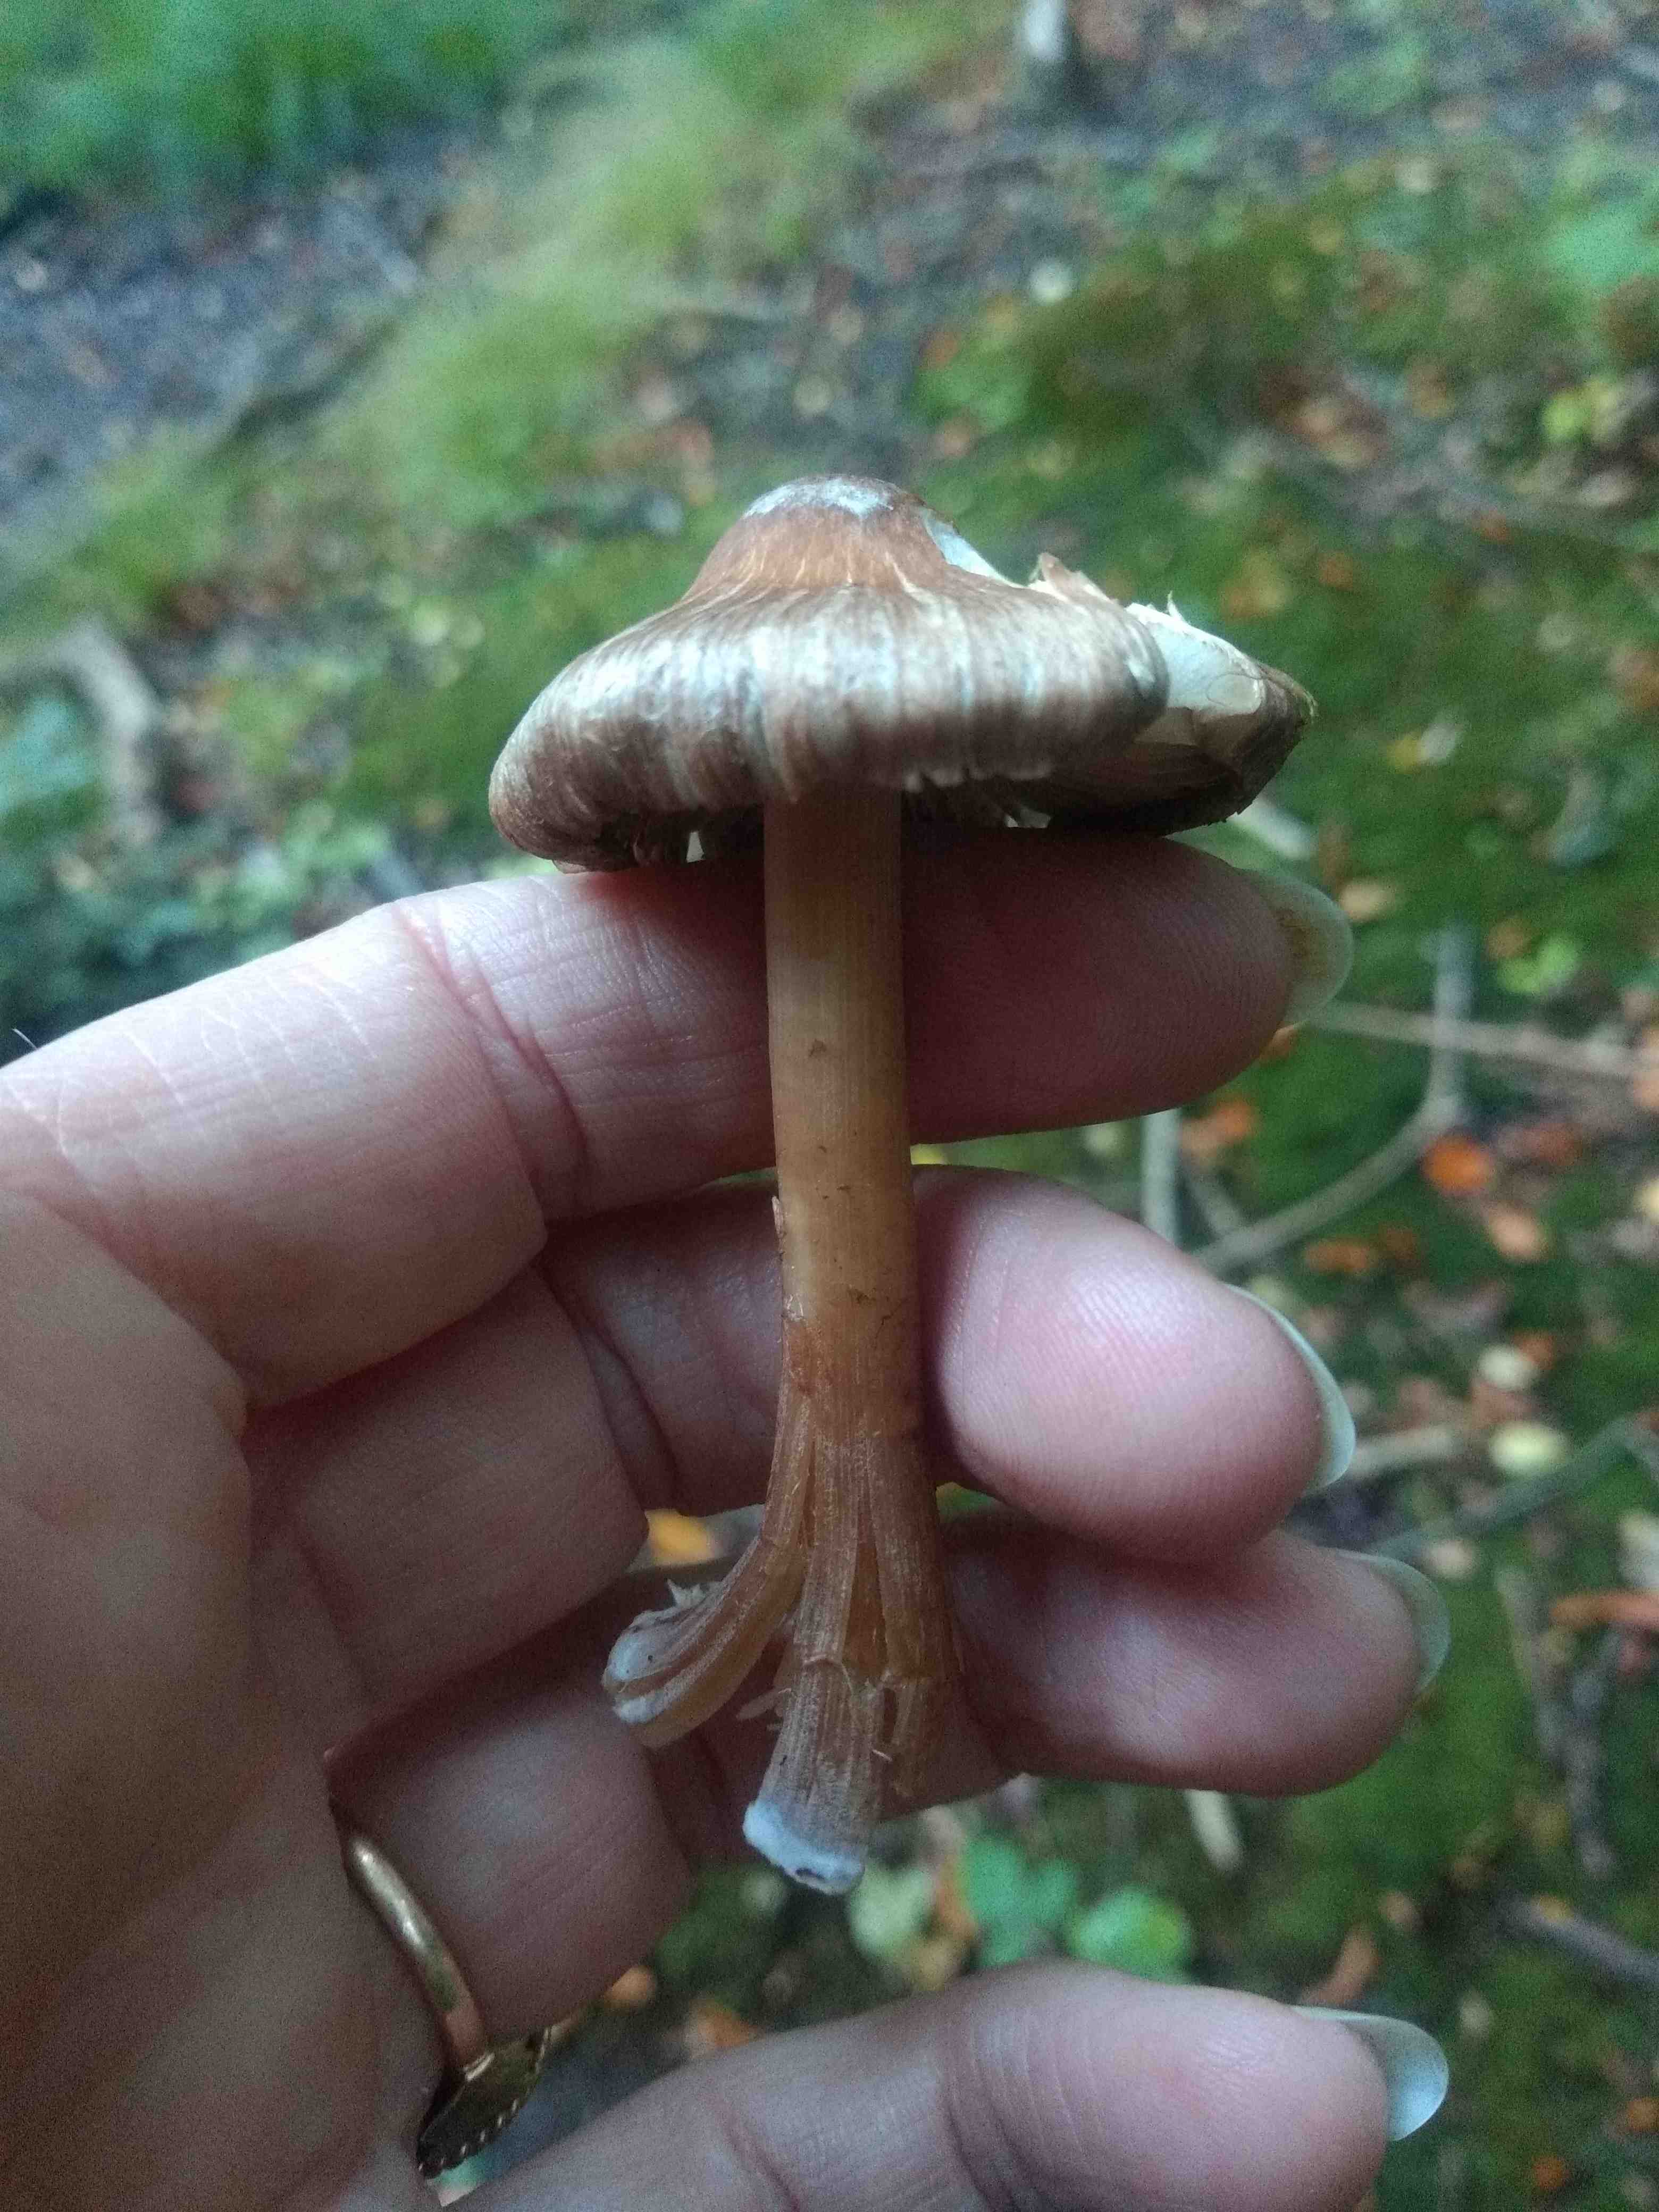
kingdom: Fungi
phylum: Basidiomycota
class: Agaricomycetes
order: Agaricales
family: Inocybaceae
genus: Inocybe
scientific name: Inocybe asterospora
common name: stjernesporet trævlhat
